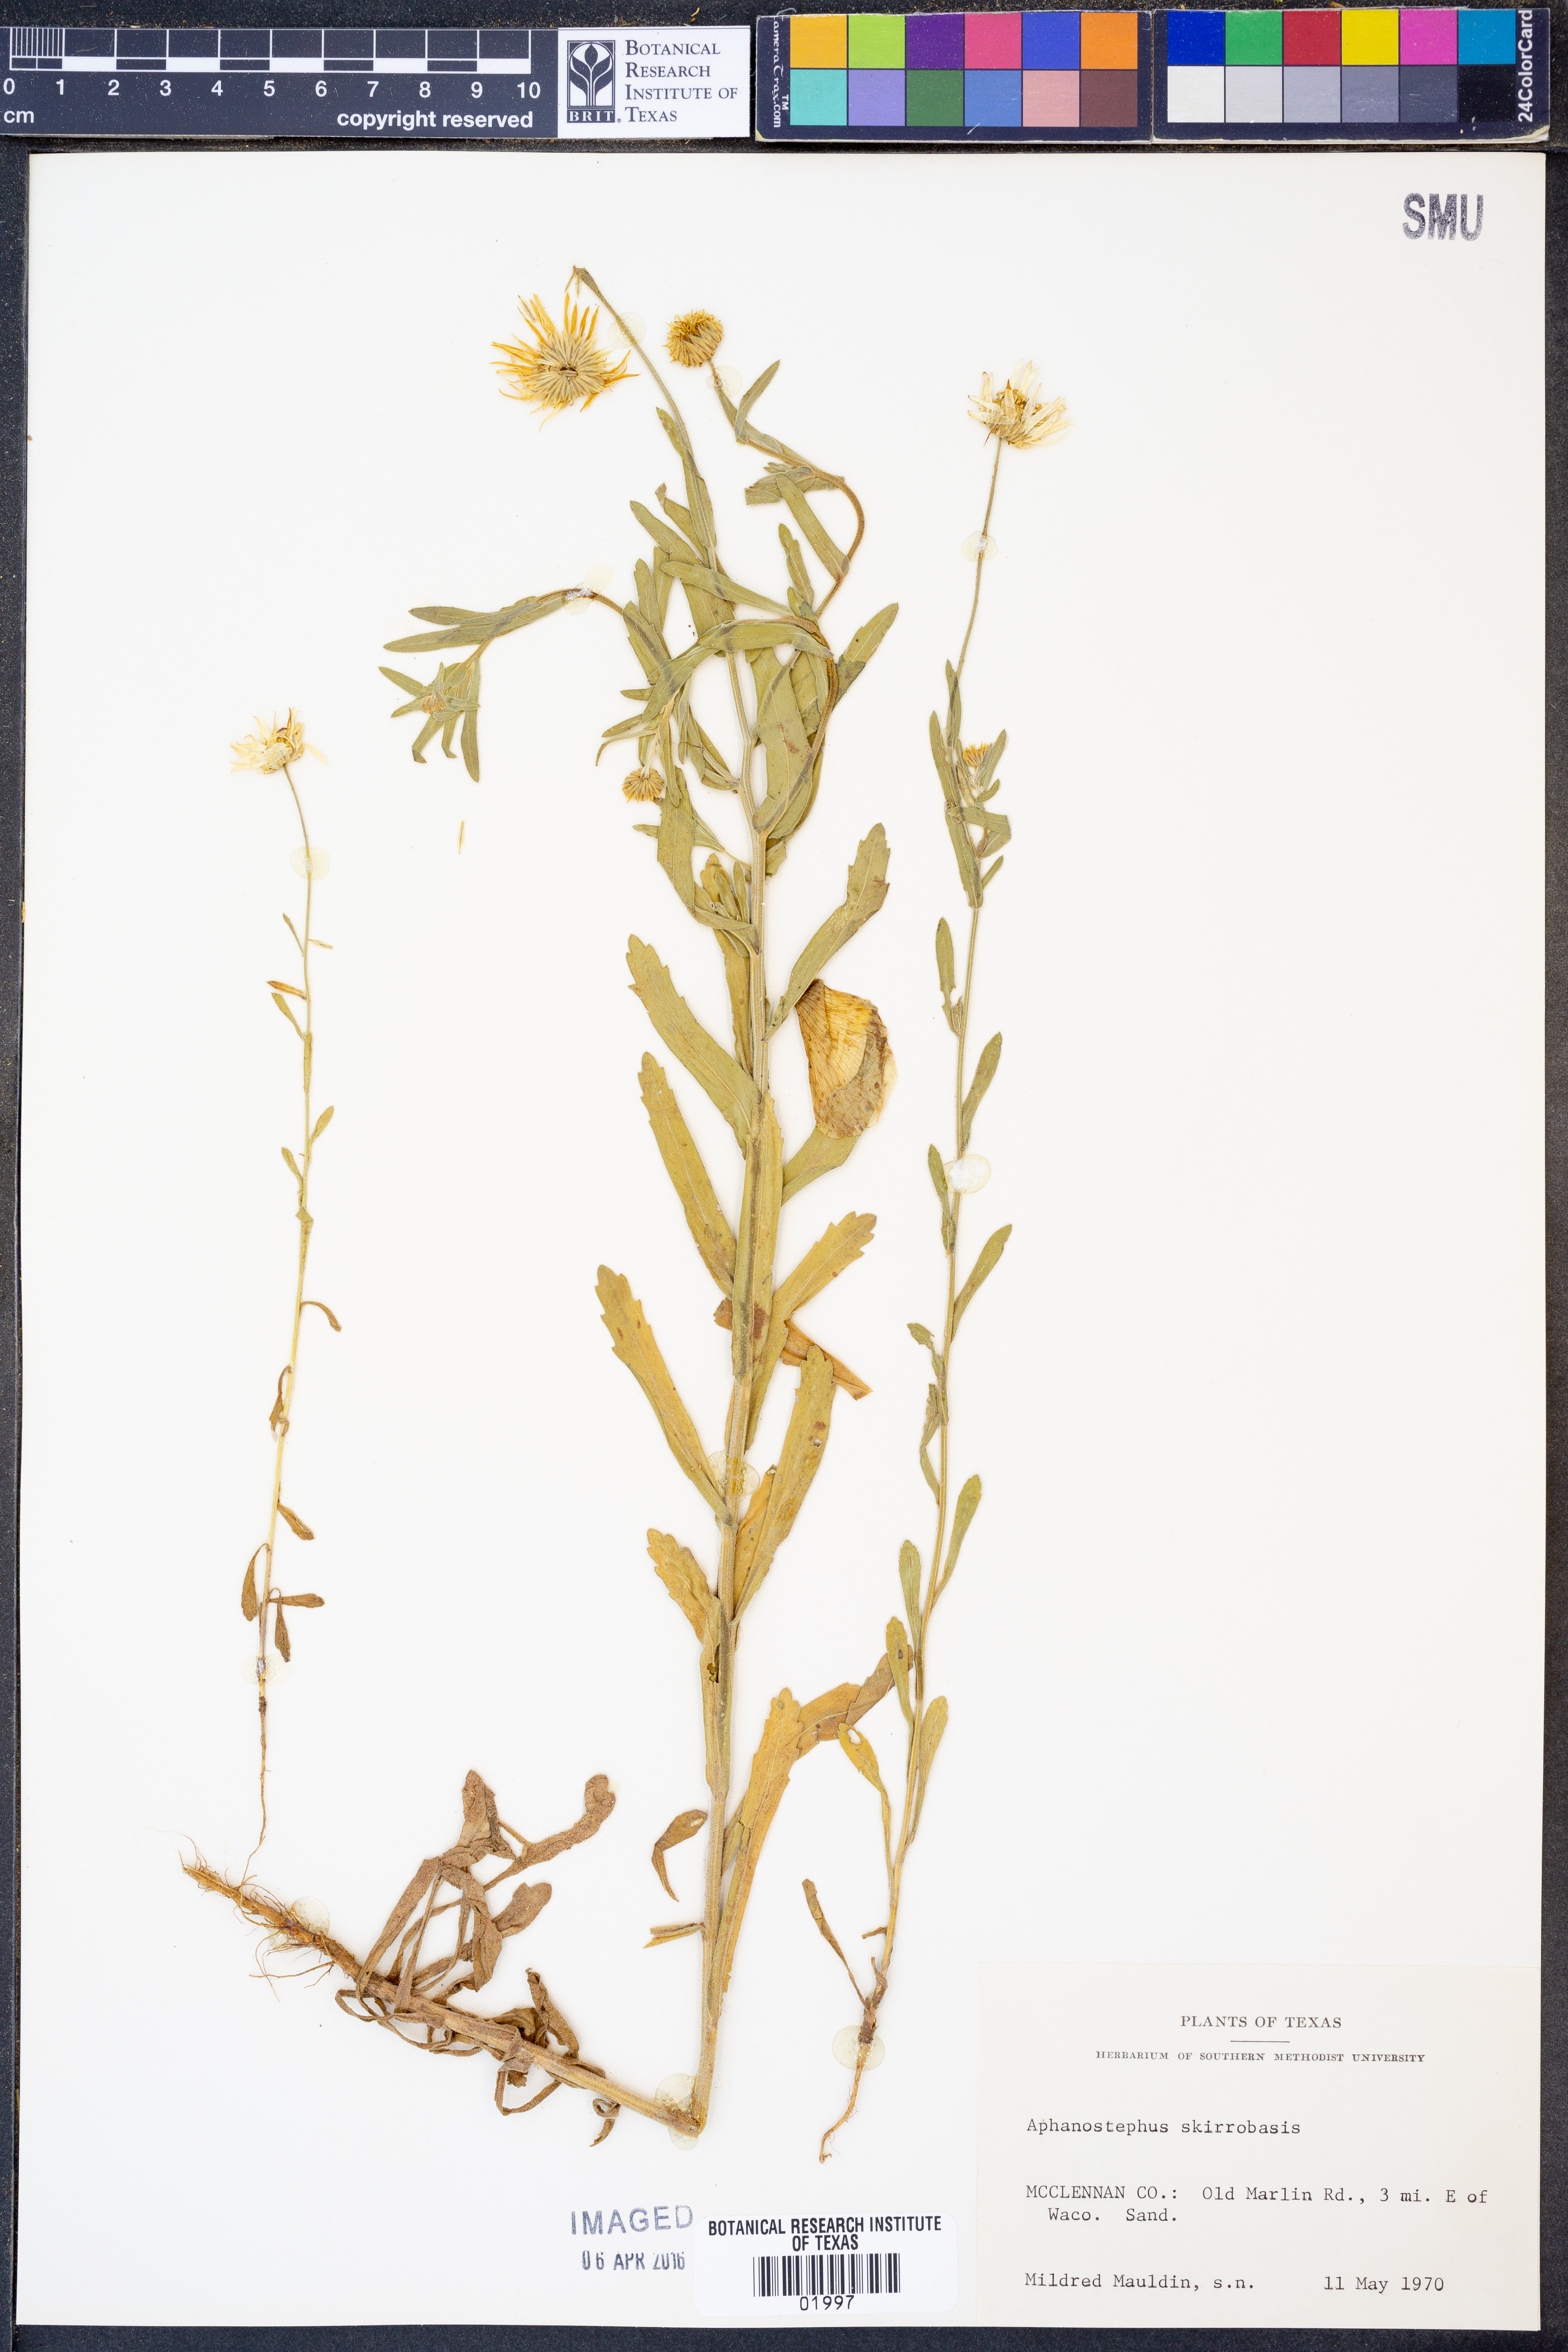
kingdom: Plantae
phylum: Tracheophyta
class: Magnoliopsida
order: Asterales
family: Asteraceae
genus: Aphanostephus
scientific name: Aphanostephus skirrhobasis
